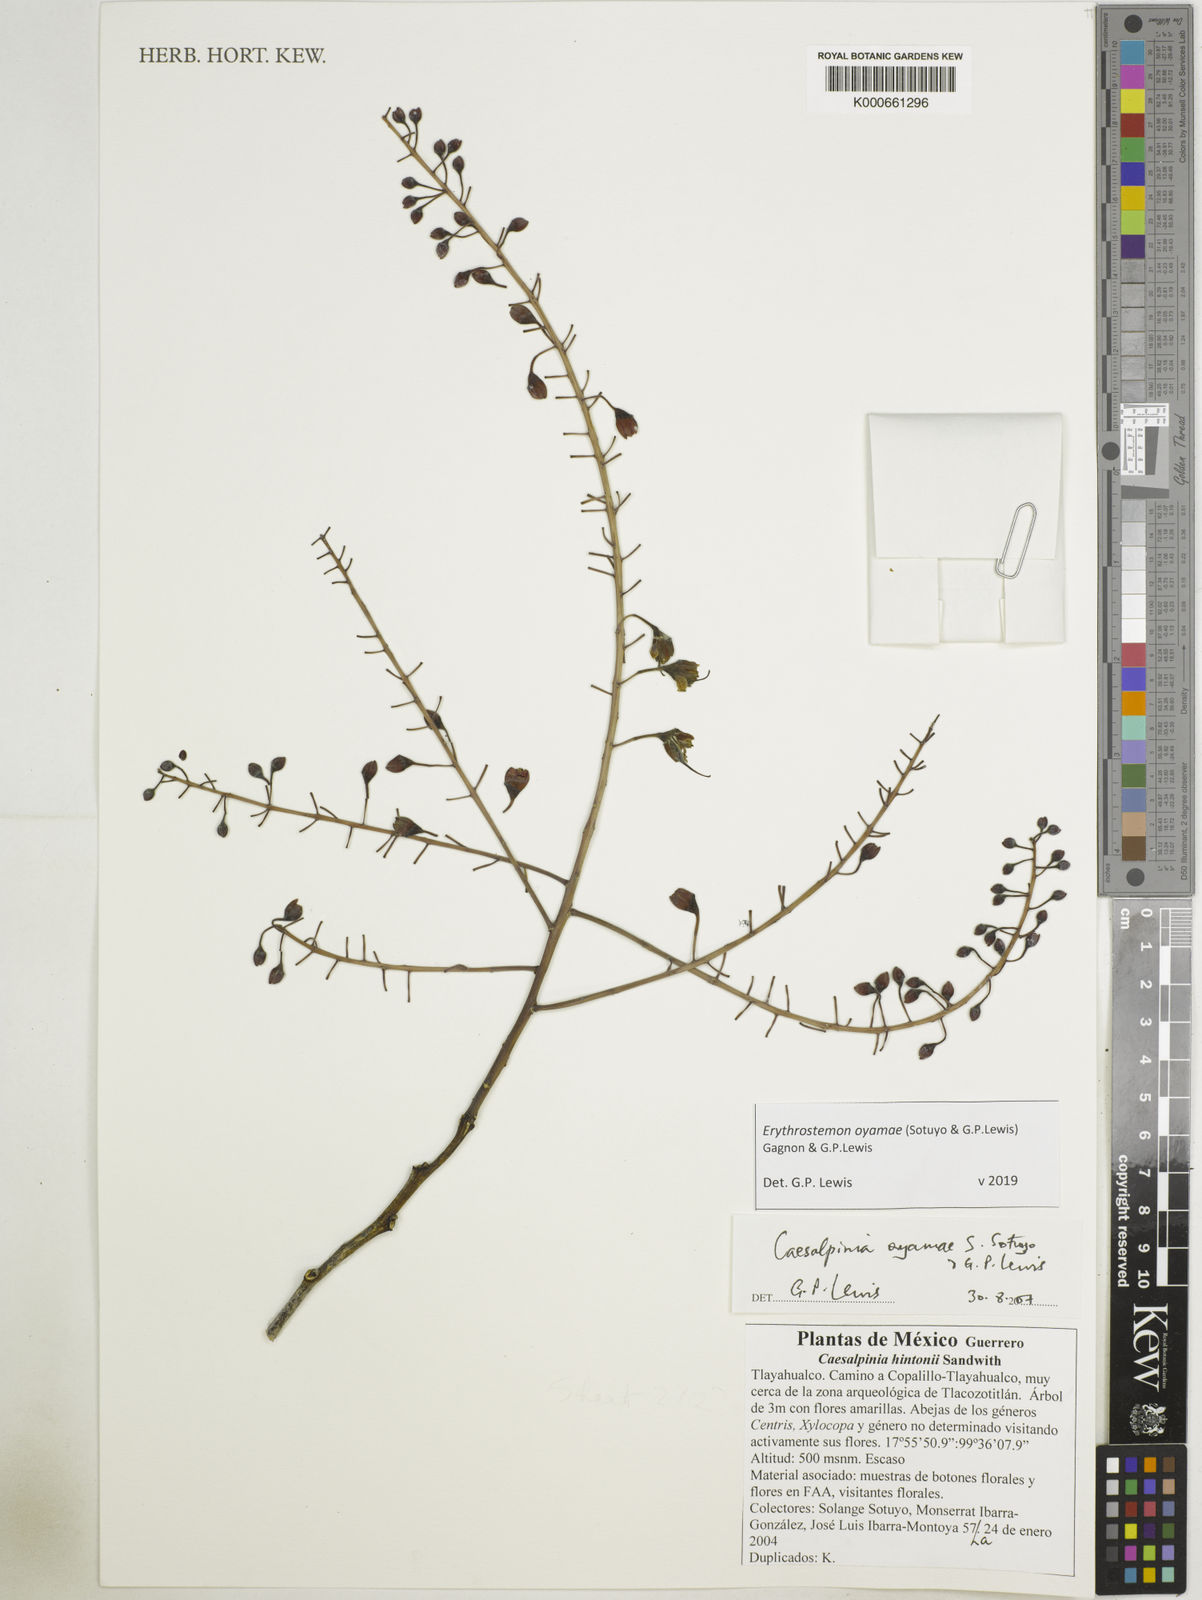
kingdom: Plantae
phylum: Tracheophyta
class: Magnoliopsida
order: Fabales
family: Fabaceae
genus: Erythrostemon
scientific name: Erythrostemon oyamae
